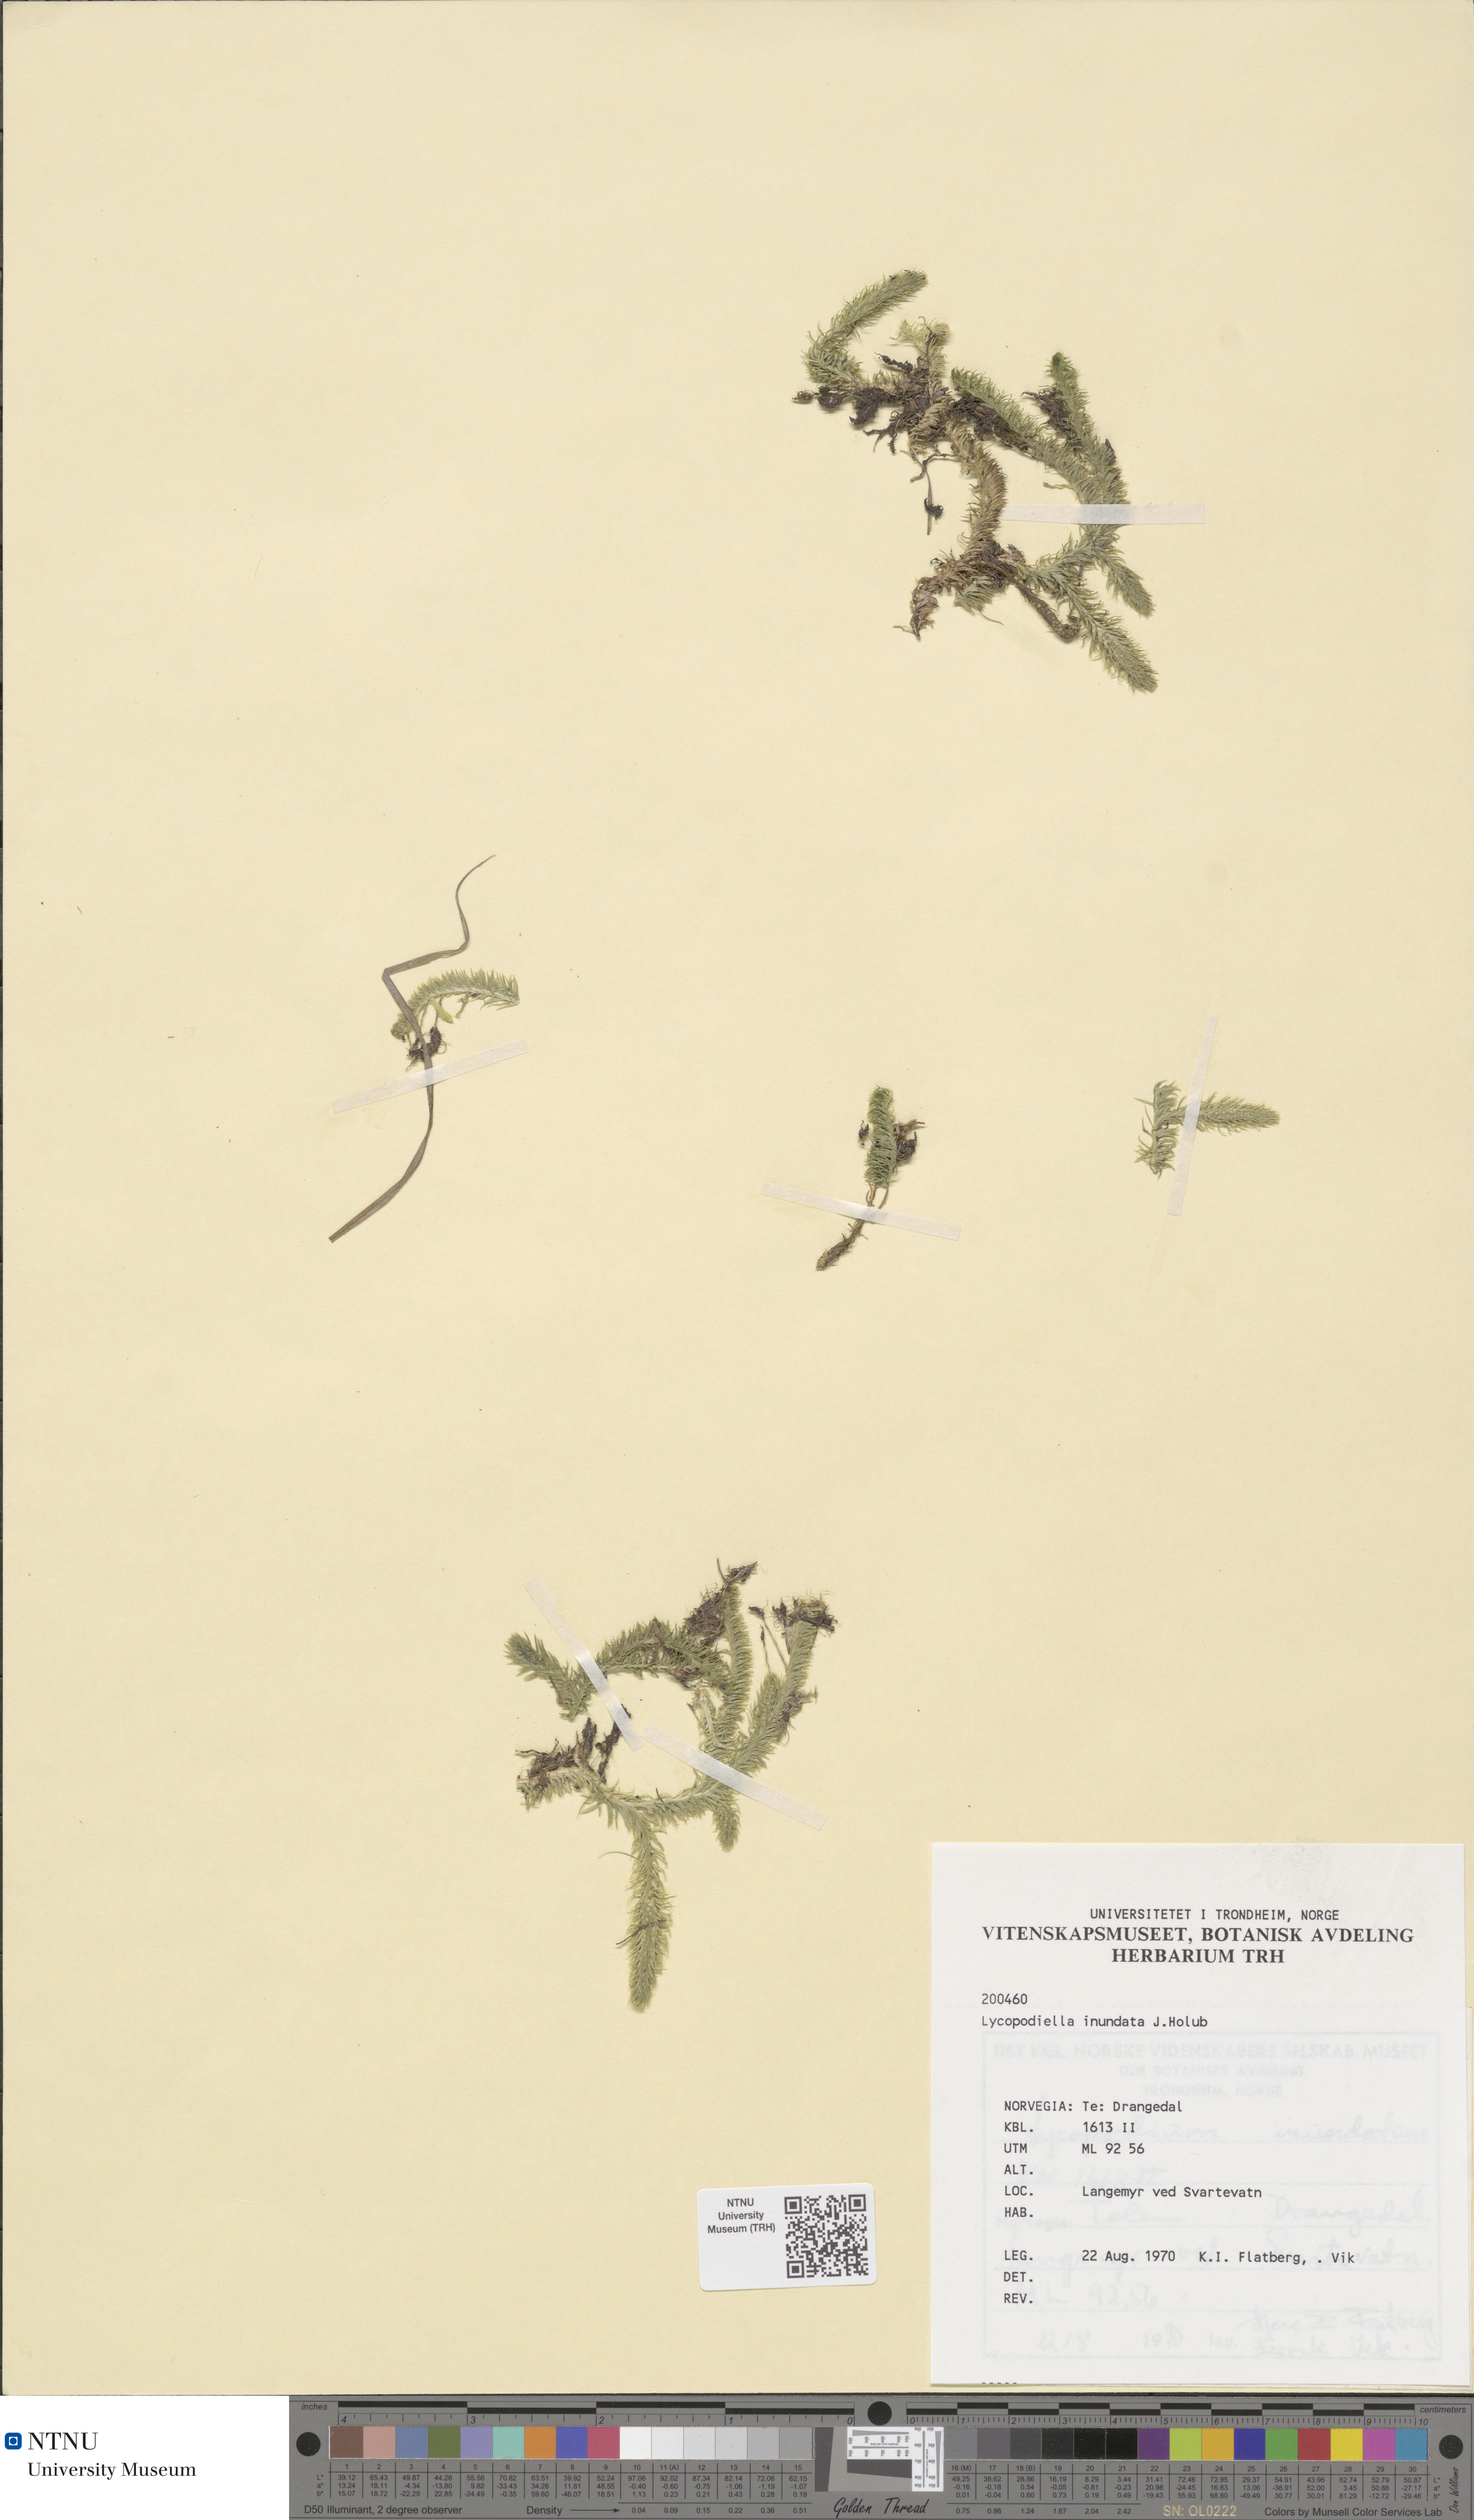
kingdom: Plantae
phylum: Tracheophyta
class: Lycopodiopsida
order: Lycopodiales
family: Lycopodiaceae
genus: Lycopodiella
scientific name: Lycopodiella inundata
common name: Marsh clubmoss
